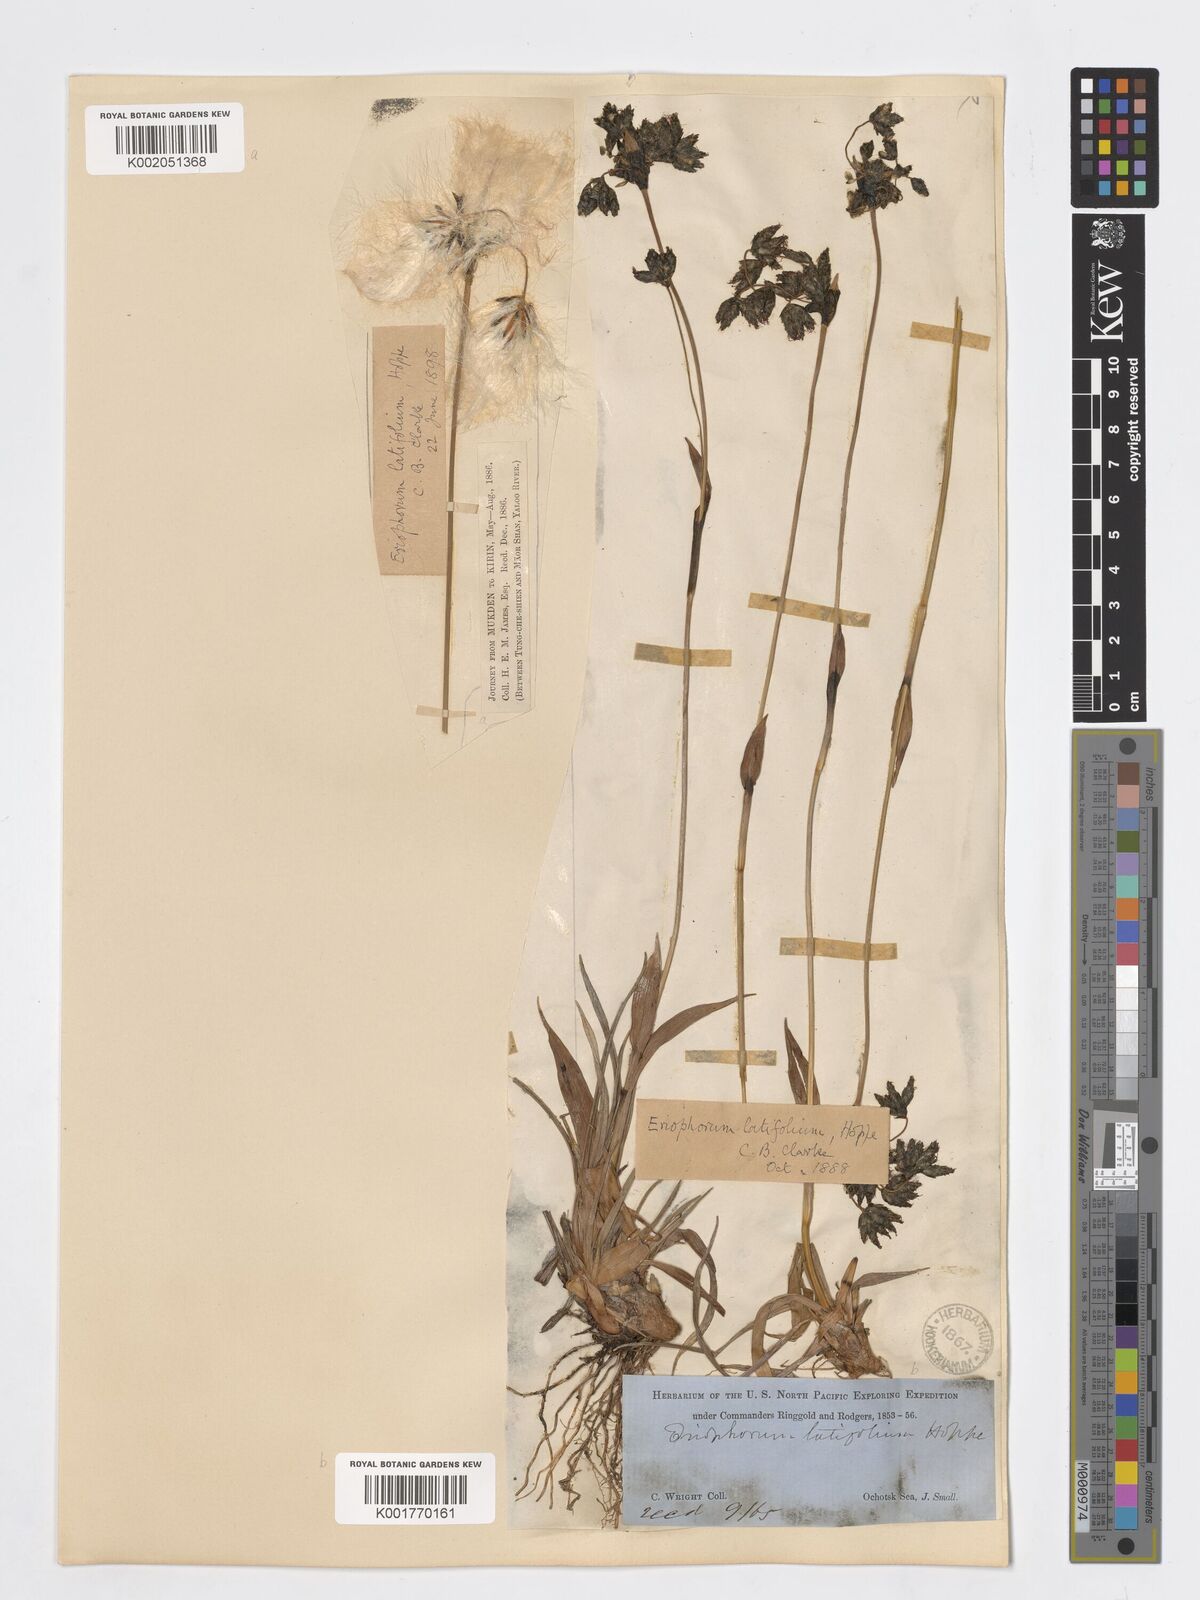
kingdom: Plantae
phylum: Tracheophyta
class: Liliopsida
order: Poales
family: Cyperaceae
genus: Eriophorum
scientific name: Eriophorum latifolium
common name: Broad-leaved cottongrass
